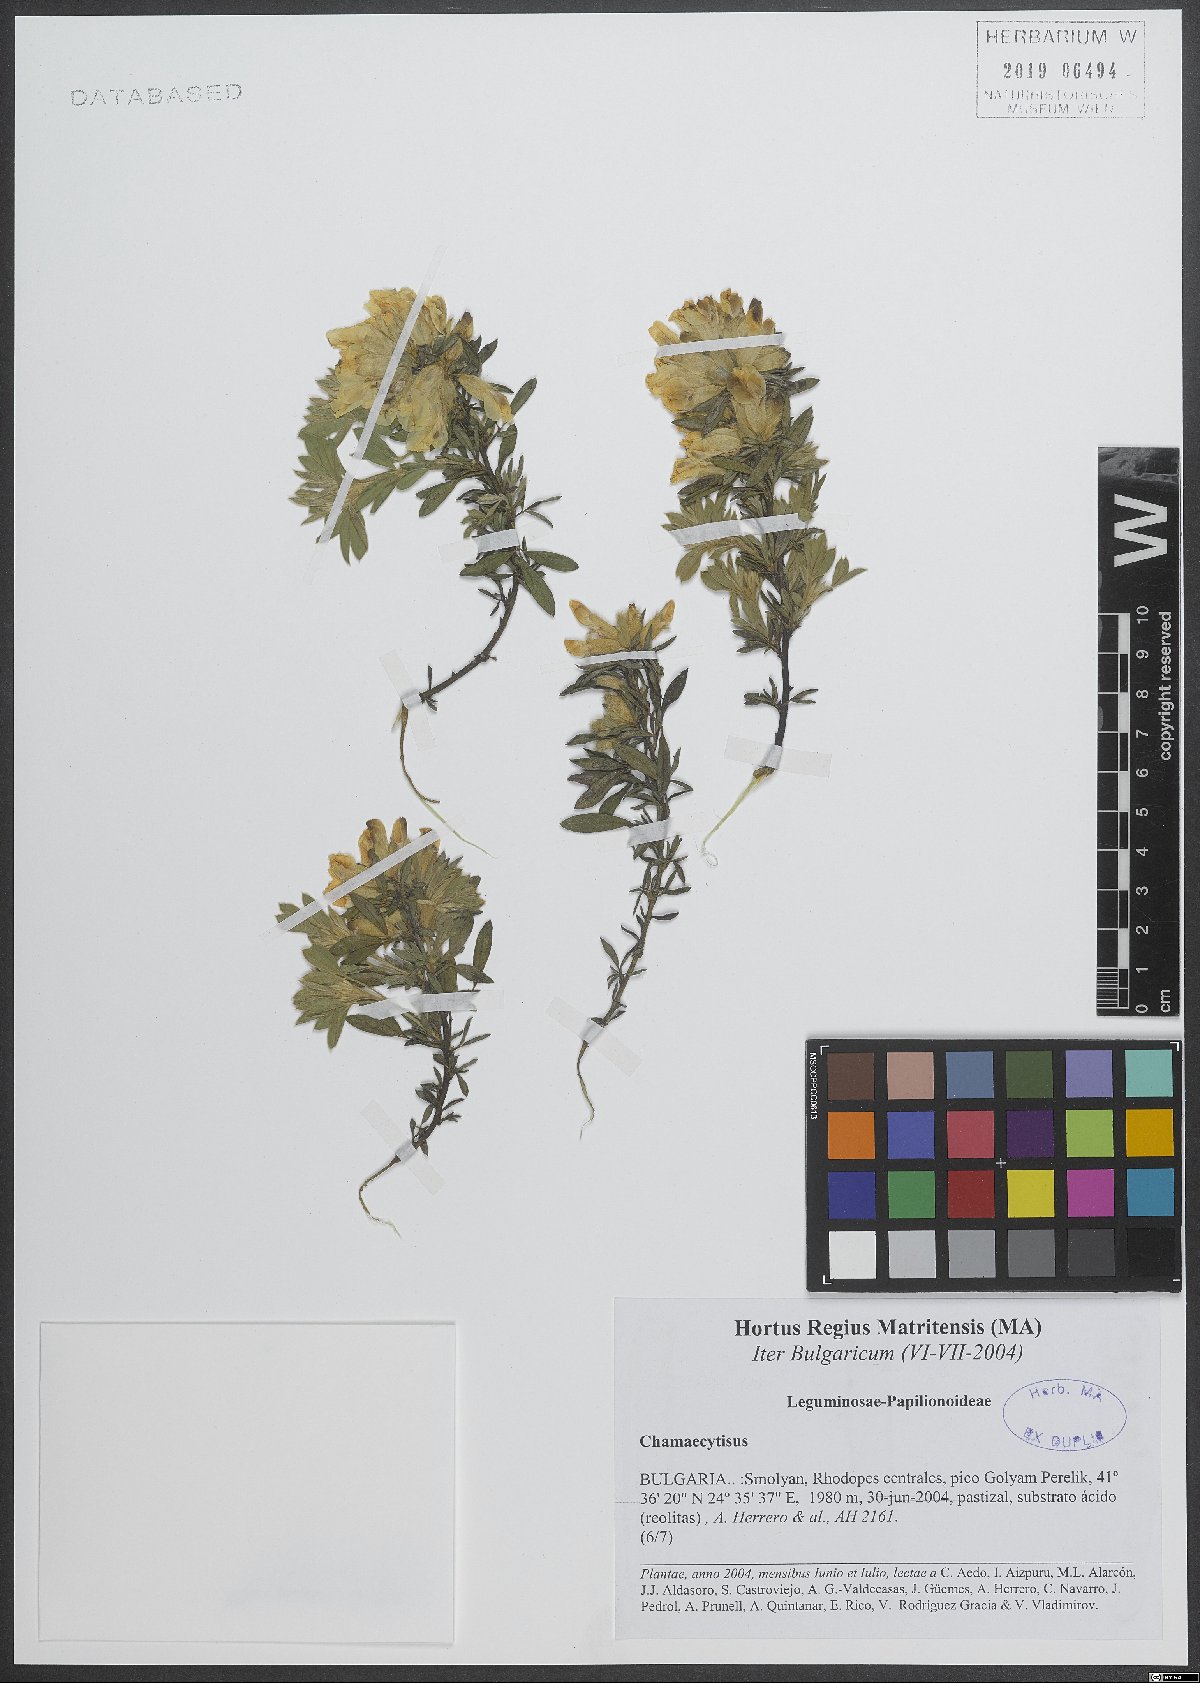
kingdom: Plantae
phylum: Tracheophyta
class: Magnoliopsida
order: Fabales
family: Fabaceae
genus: Chamaecytisus
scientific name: Chamaecytisus
